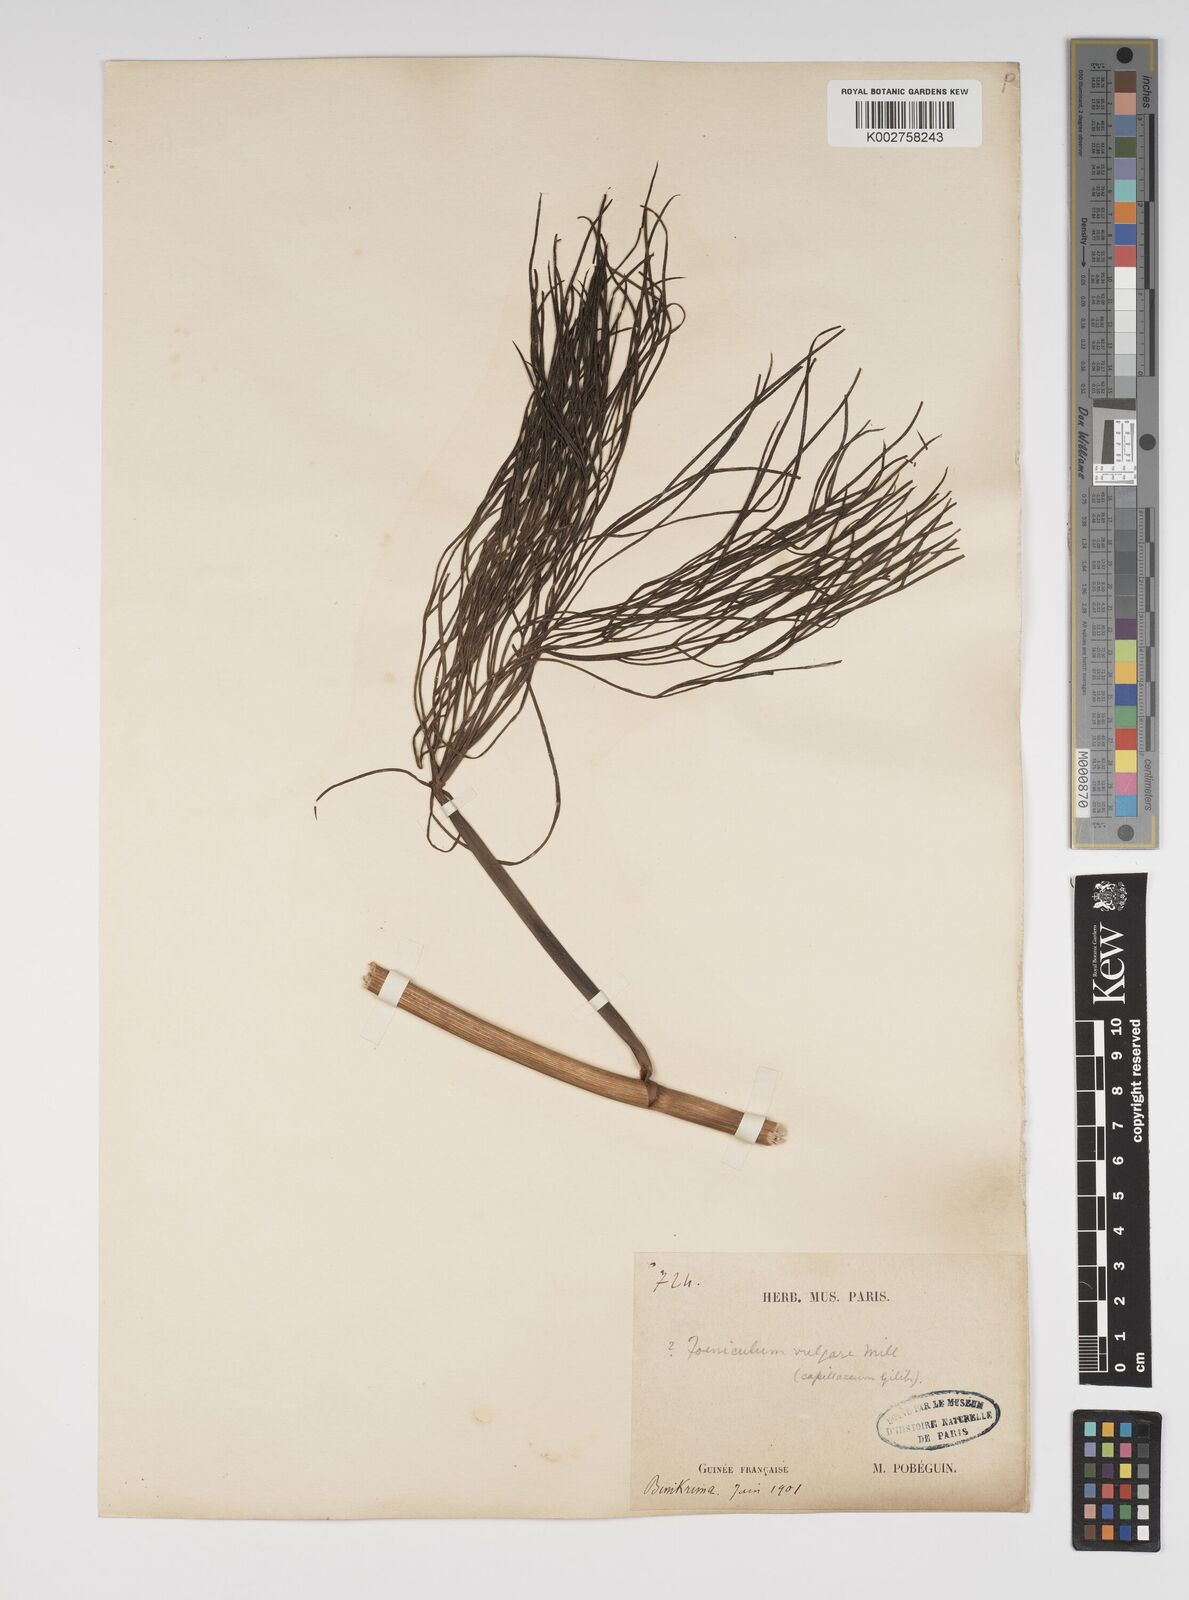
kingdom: Plantae
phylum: Tracheophyta
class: Magnoliopsida
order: Apiales
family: Apiaceae
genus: Foeniculum
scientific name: Foeniculum vulgare
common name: Fennel
